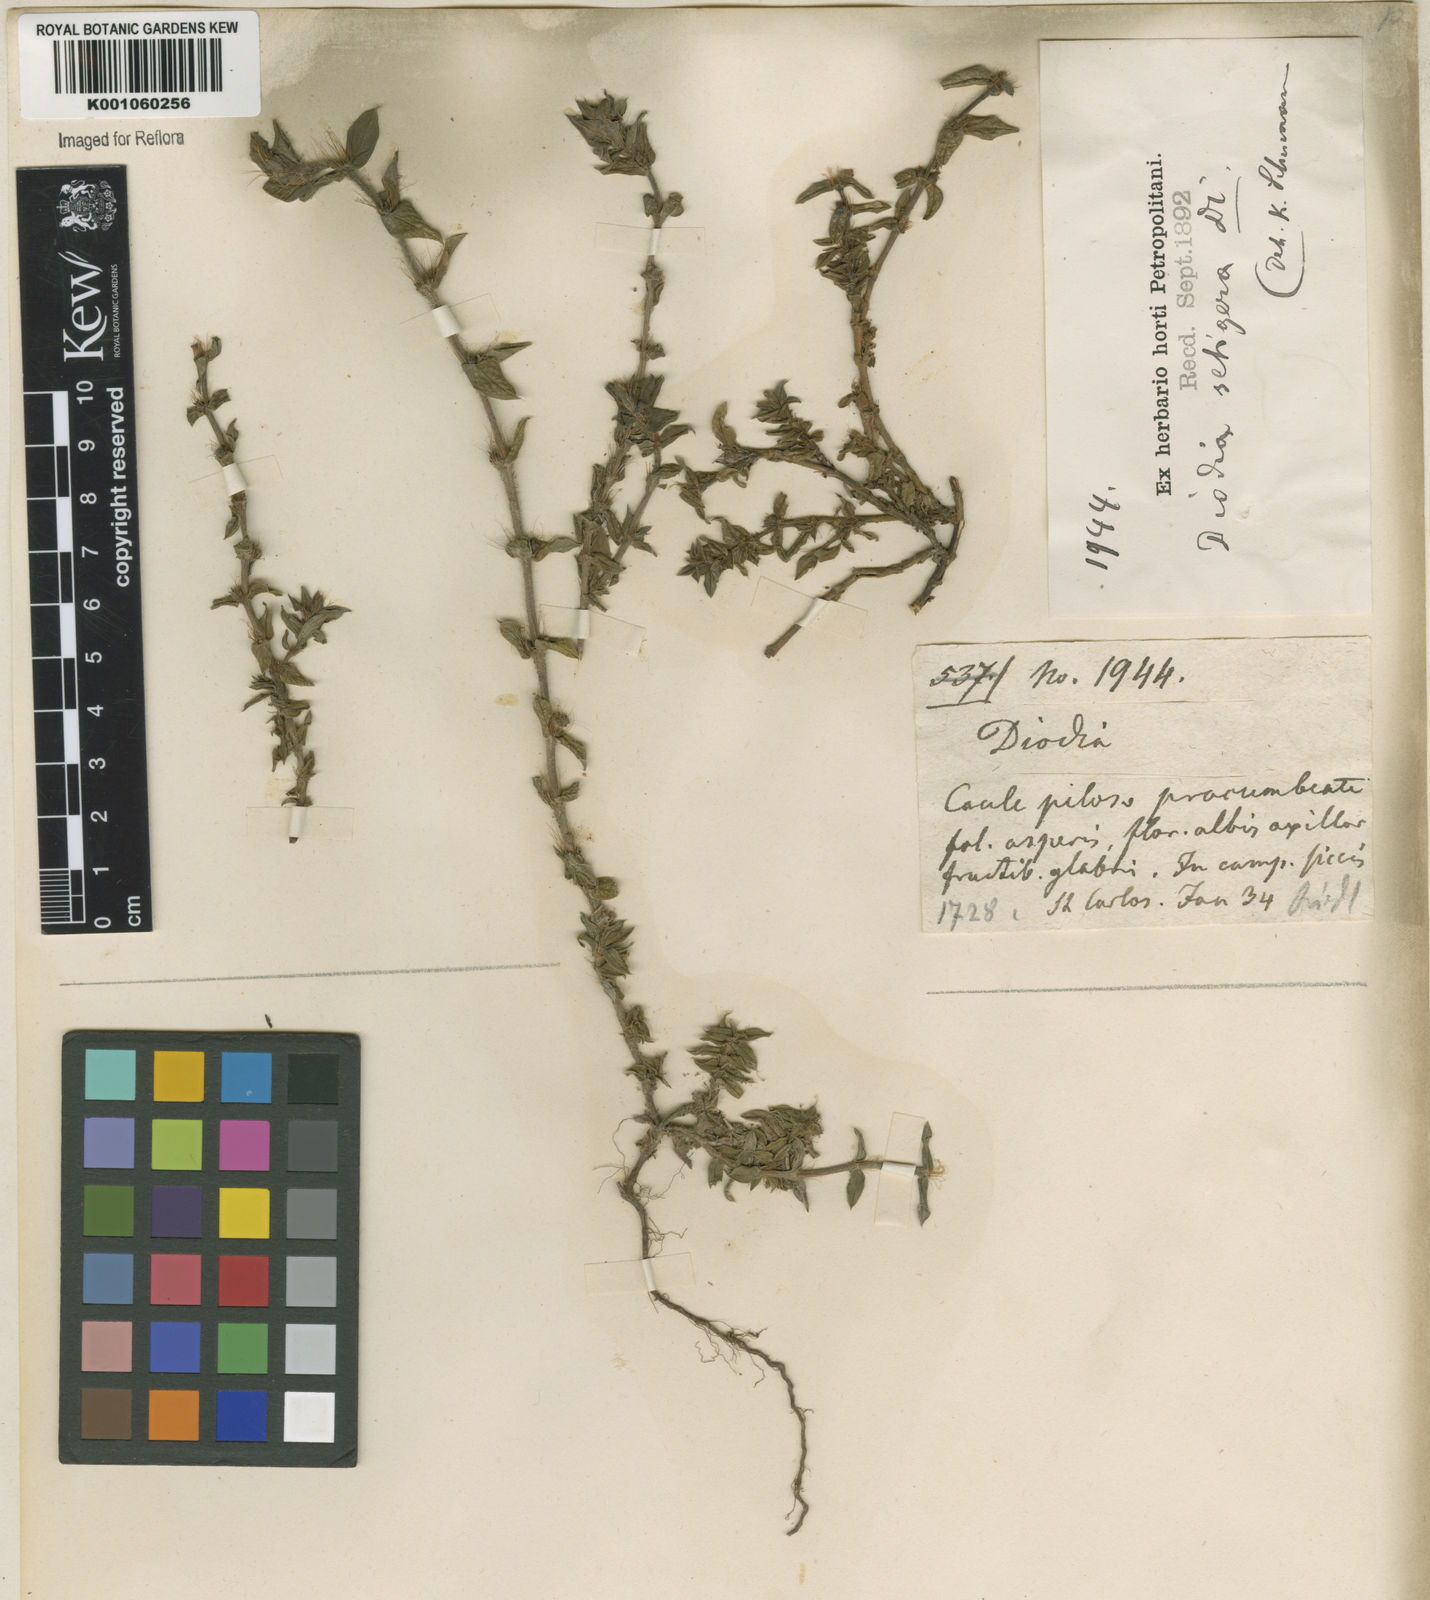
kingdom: Plantae
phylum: Tracheophyta
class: Magnoliopsida
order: Gentianales
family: Rubiaceae
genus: Hexasepalum
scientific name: Hexasepalum apiculatum
